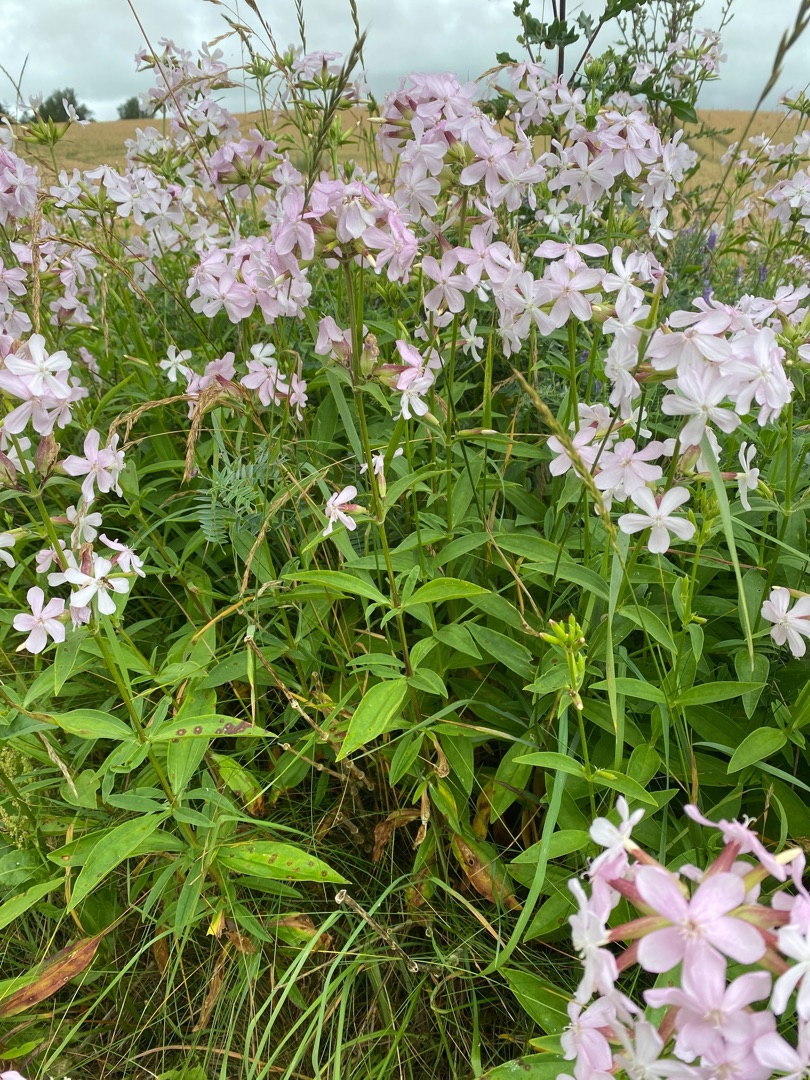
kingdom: Plantae
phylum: Tracheophyta
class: Magnoliopsida
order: Caryophyllales
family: Caryophyllaceae
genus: Saponaria
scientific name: Saponaria officinalis
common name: Sæbeurt
